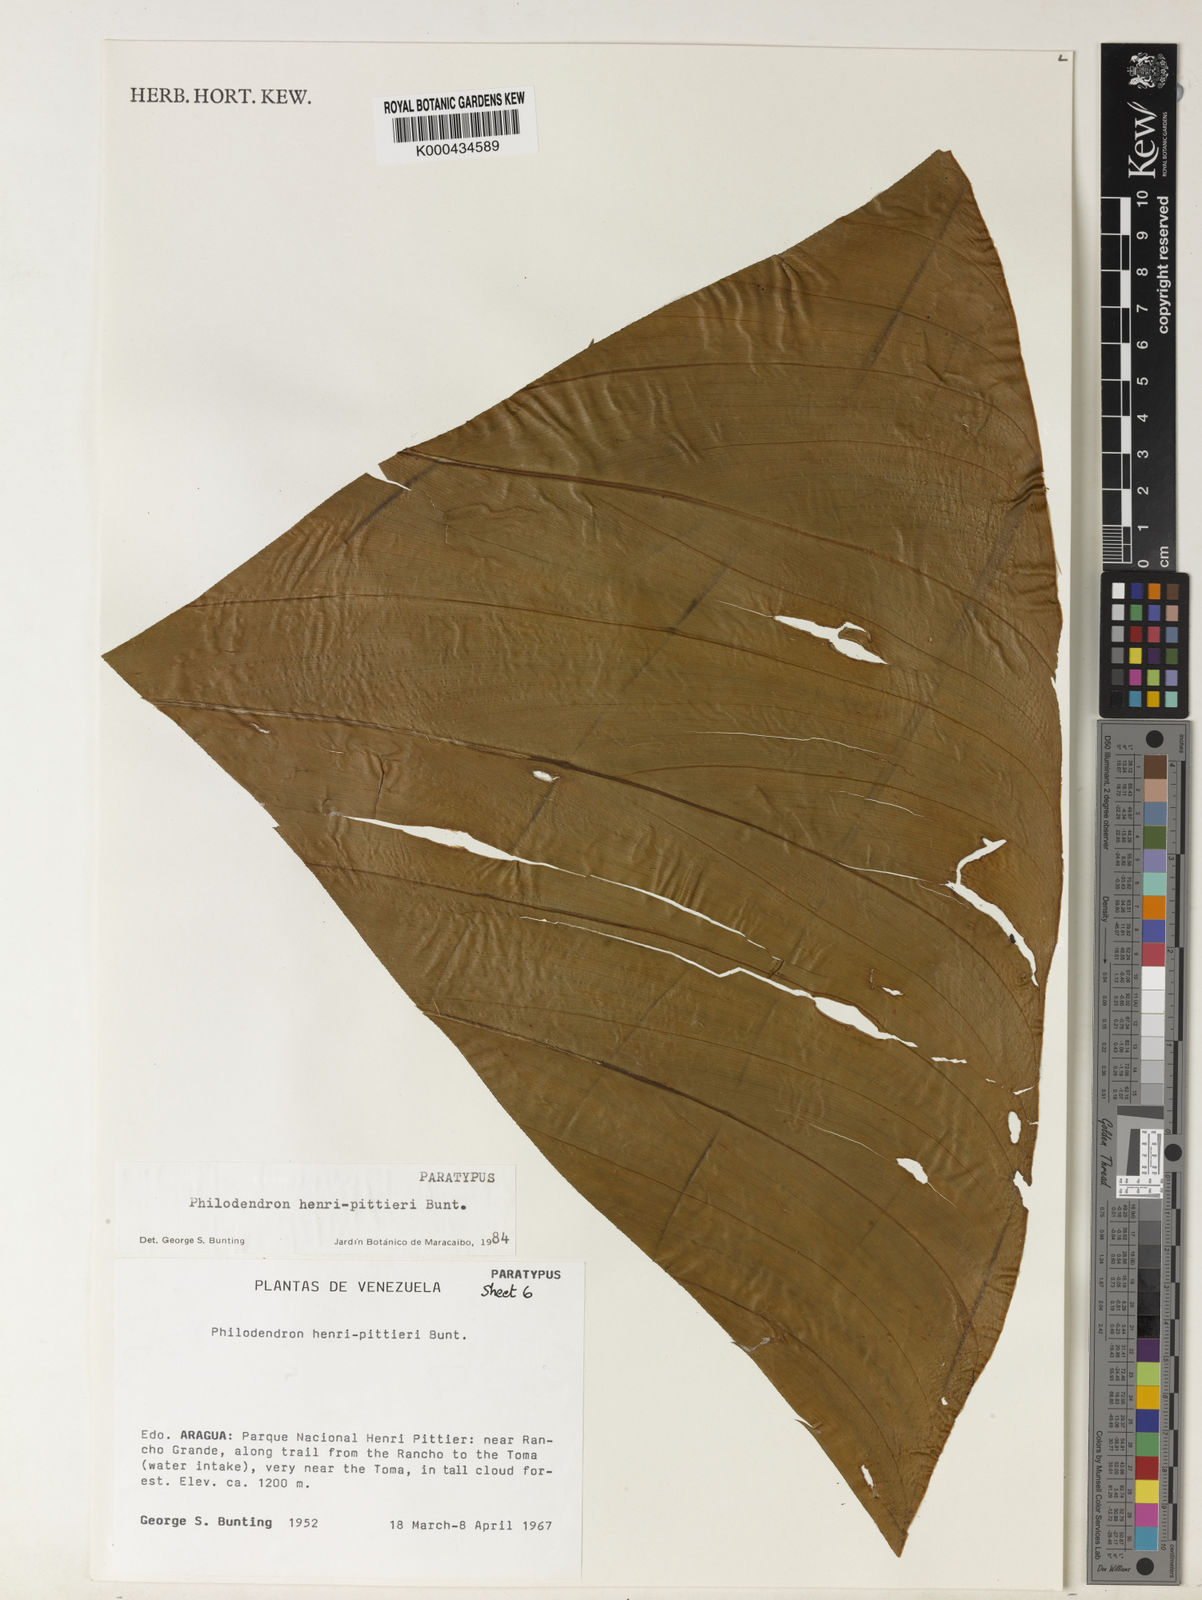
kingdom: Plantae
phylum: Tracheophyta
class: Liliopsida
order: Alismatales
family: Araceae
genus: Philodendron
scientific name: Philodendron henry-pittieri
